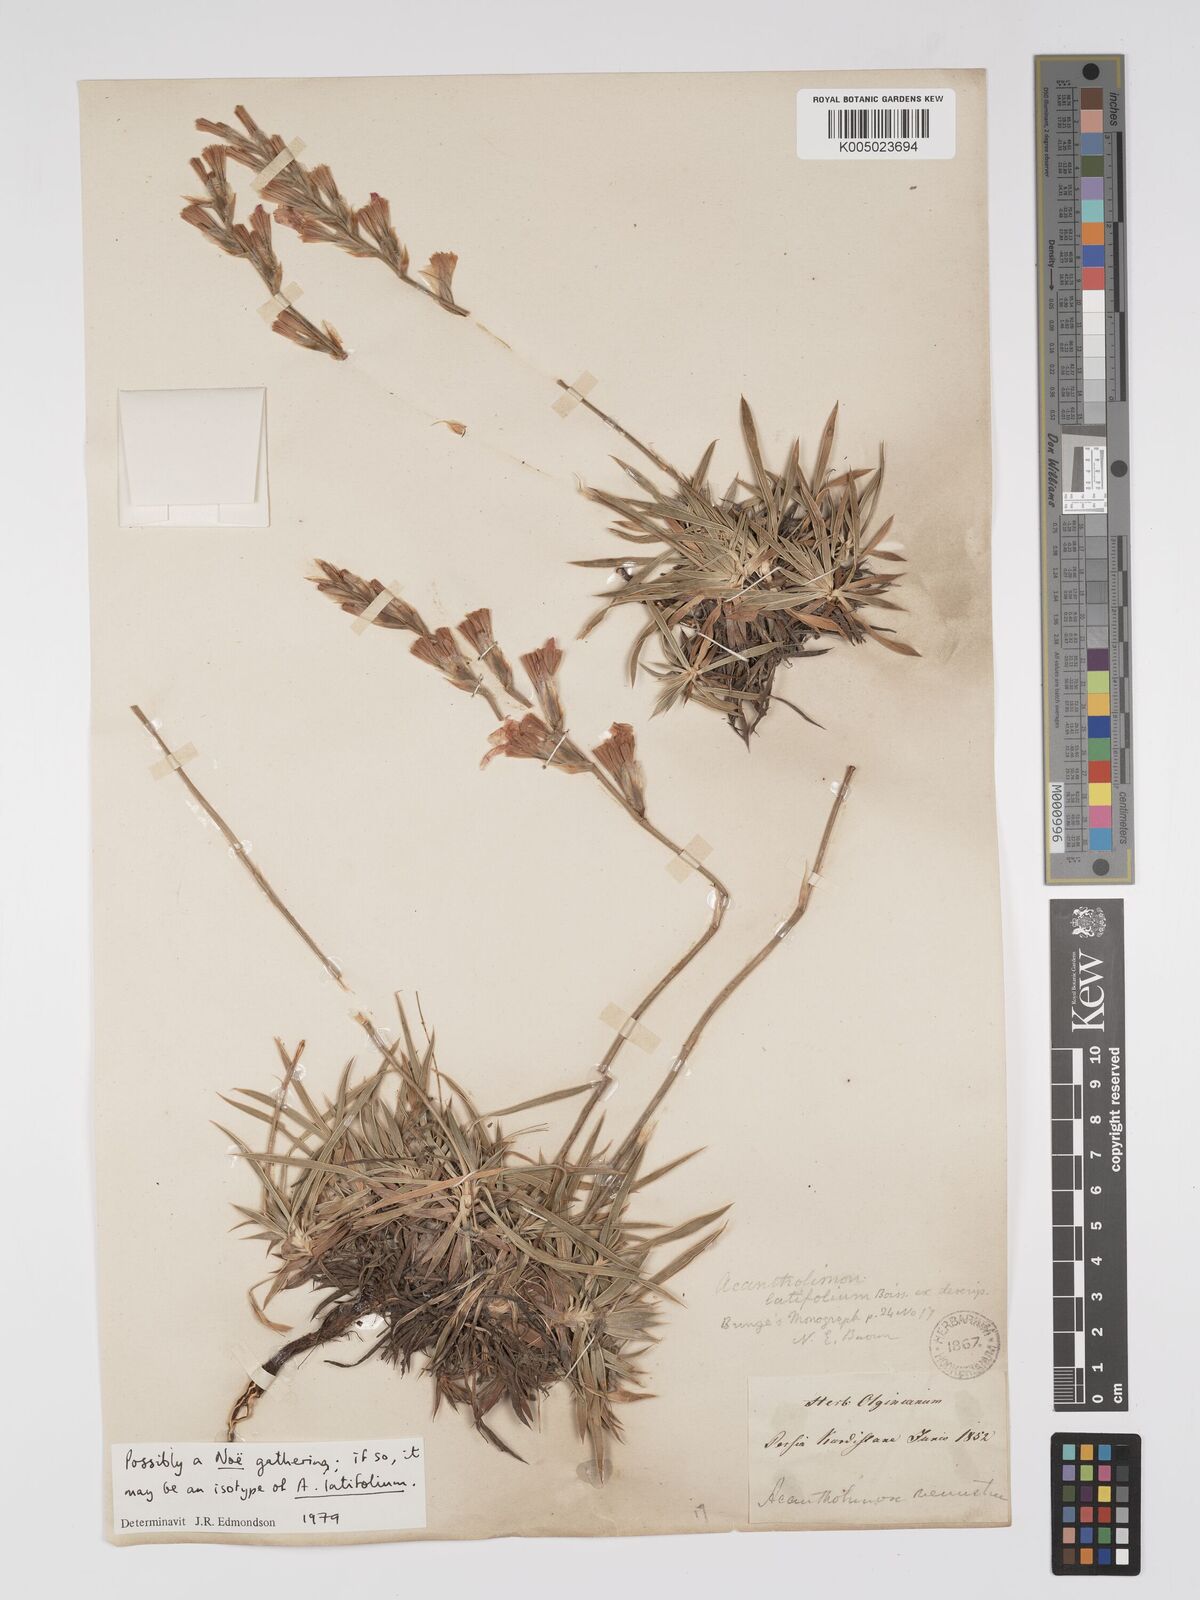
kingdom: Plantae
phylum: Tracheophyta
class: Magnoliopsida
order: Caryophyllales
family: Plumbaginaceae
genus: Acantholimon
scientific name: Acantholimon
